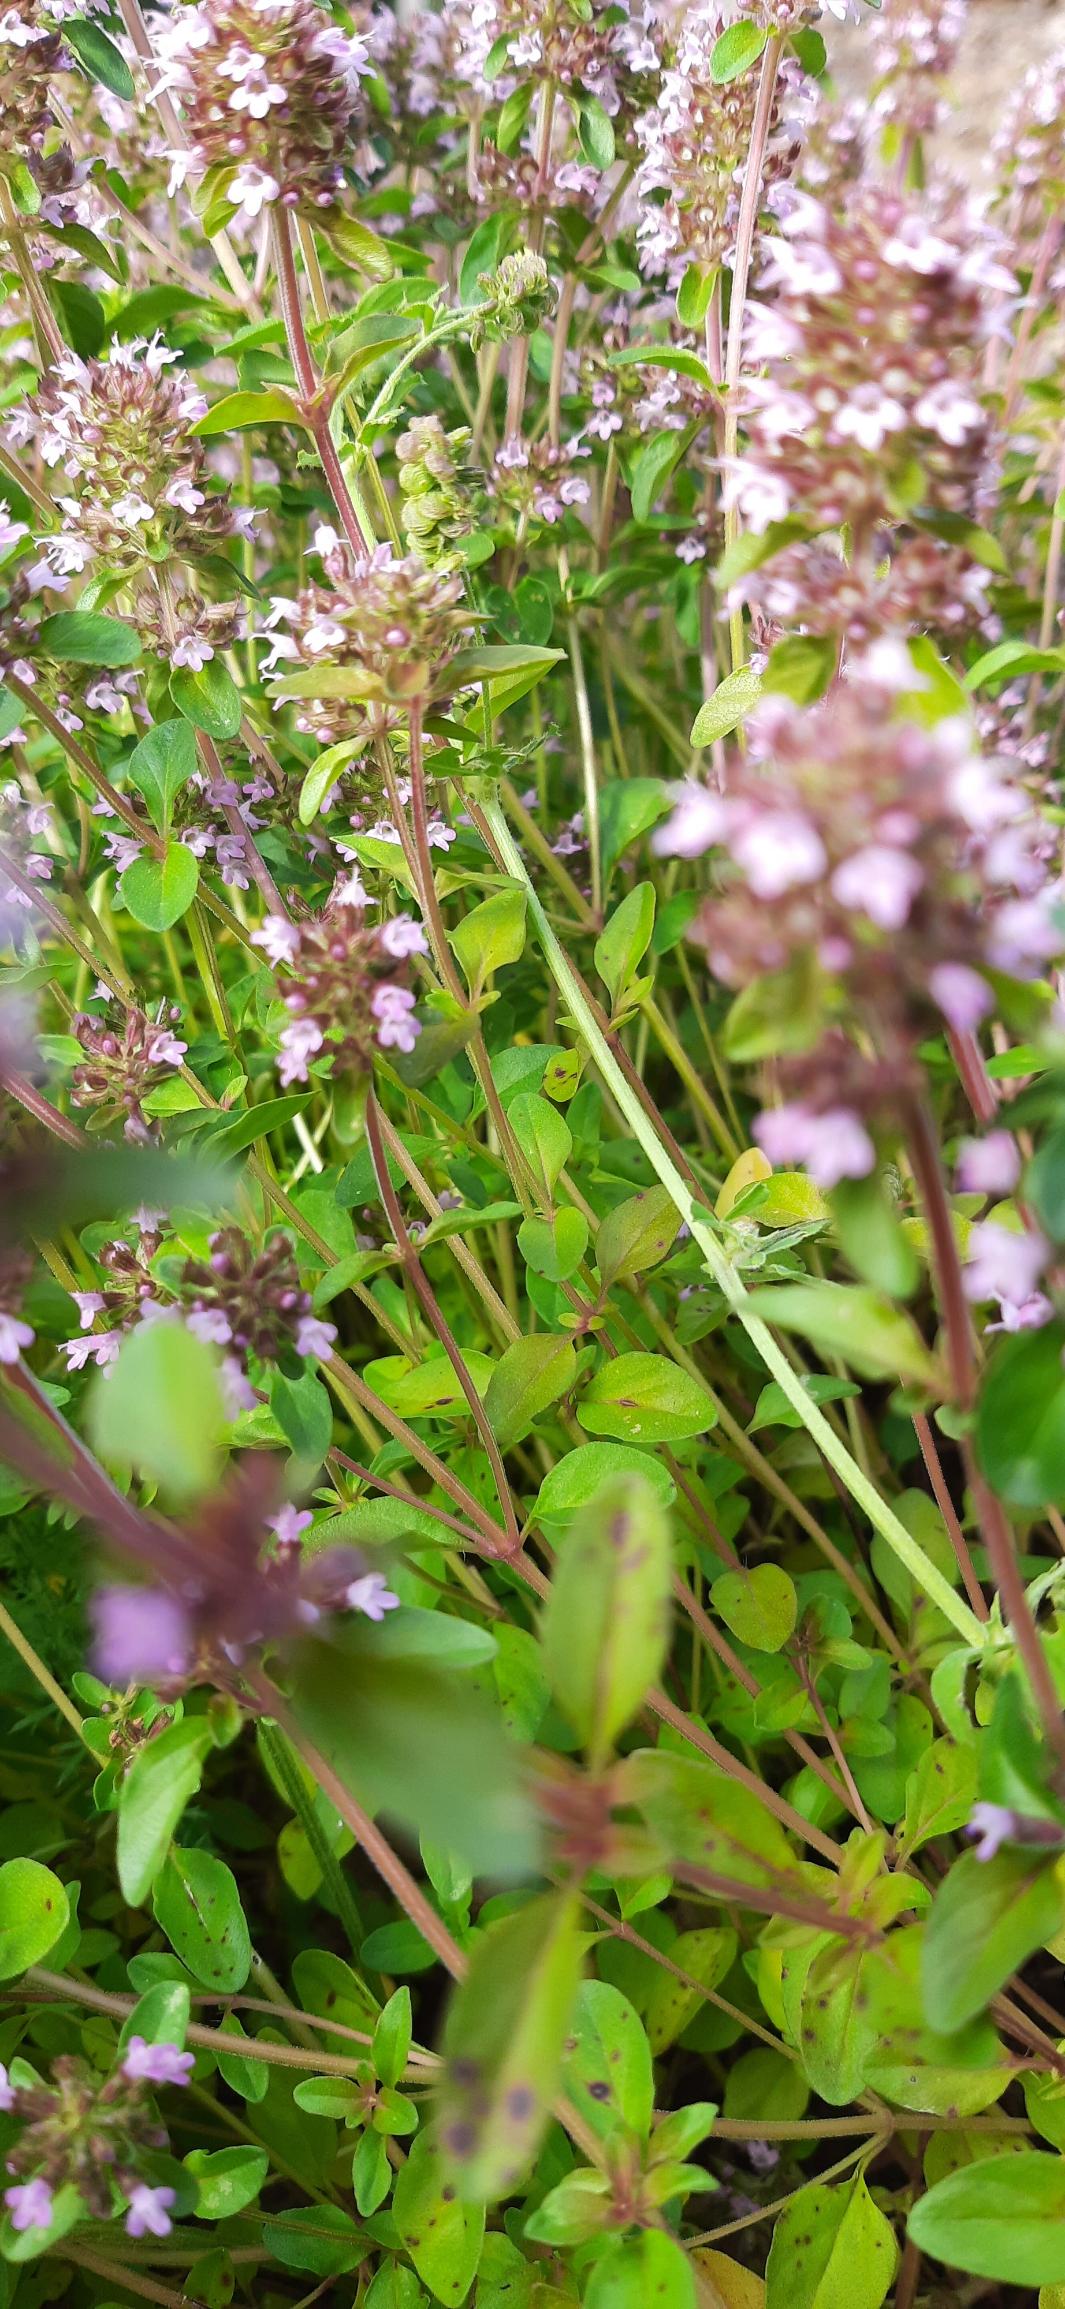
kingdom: Plantae
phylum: Tracheophyta
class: Magnoliopsida
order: Lamiales
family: Lamiaceae
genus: Thymus
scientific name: Thymus pulegioides
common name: Bredbladet timian
